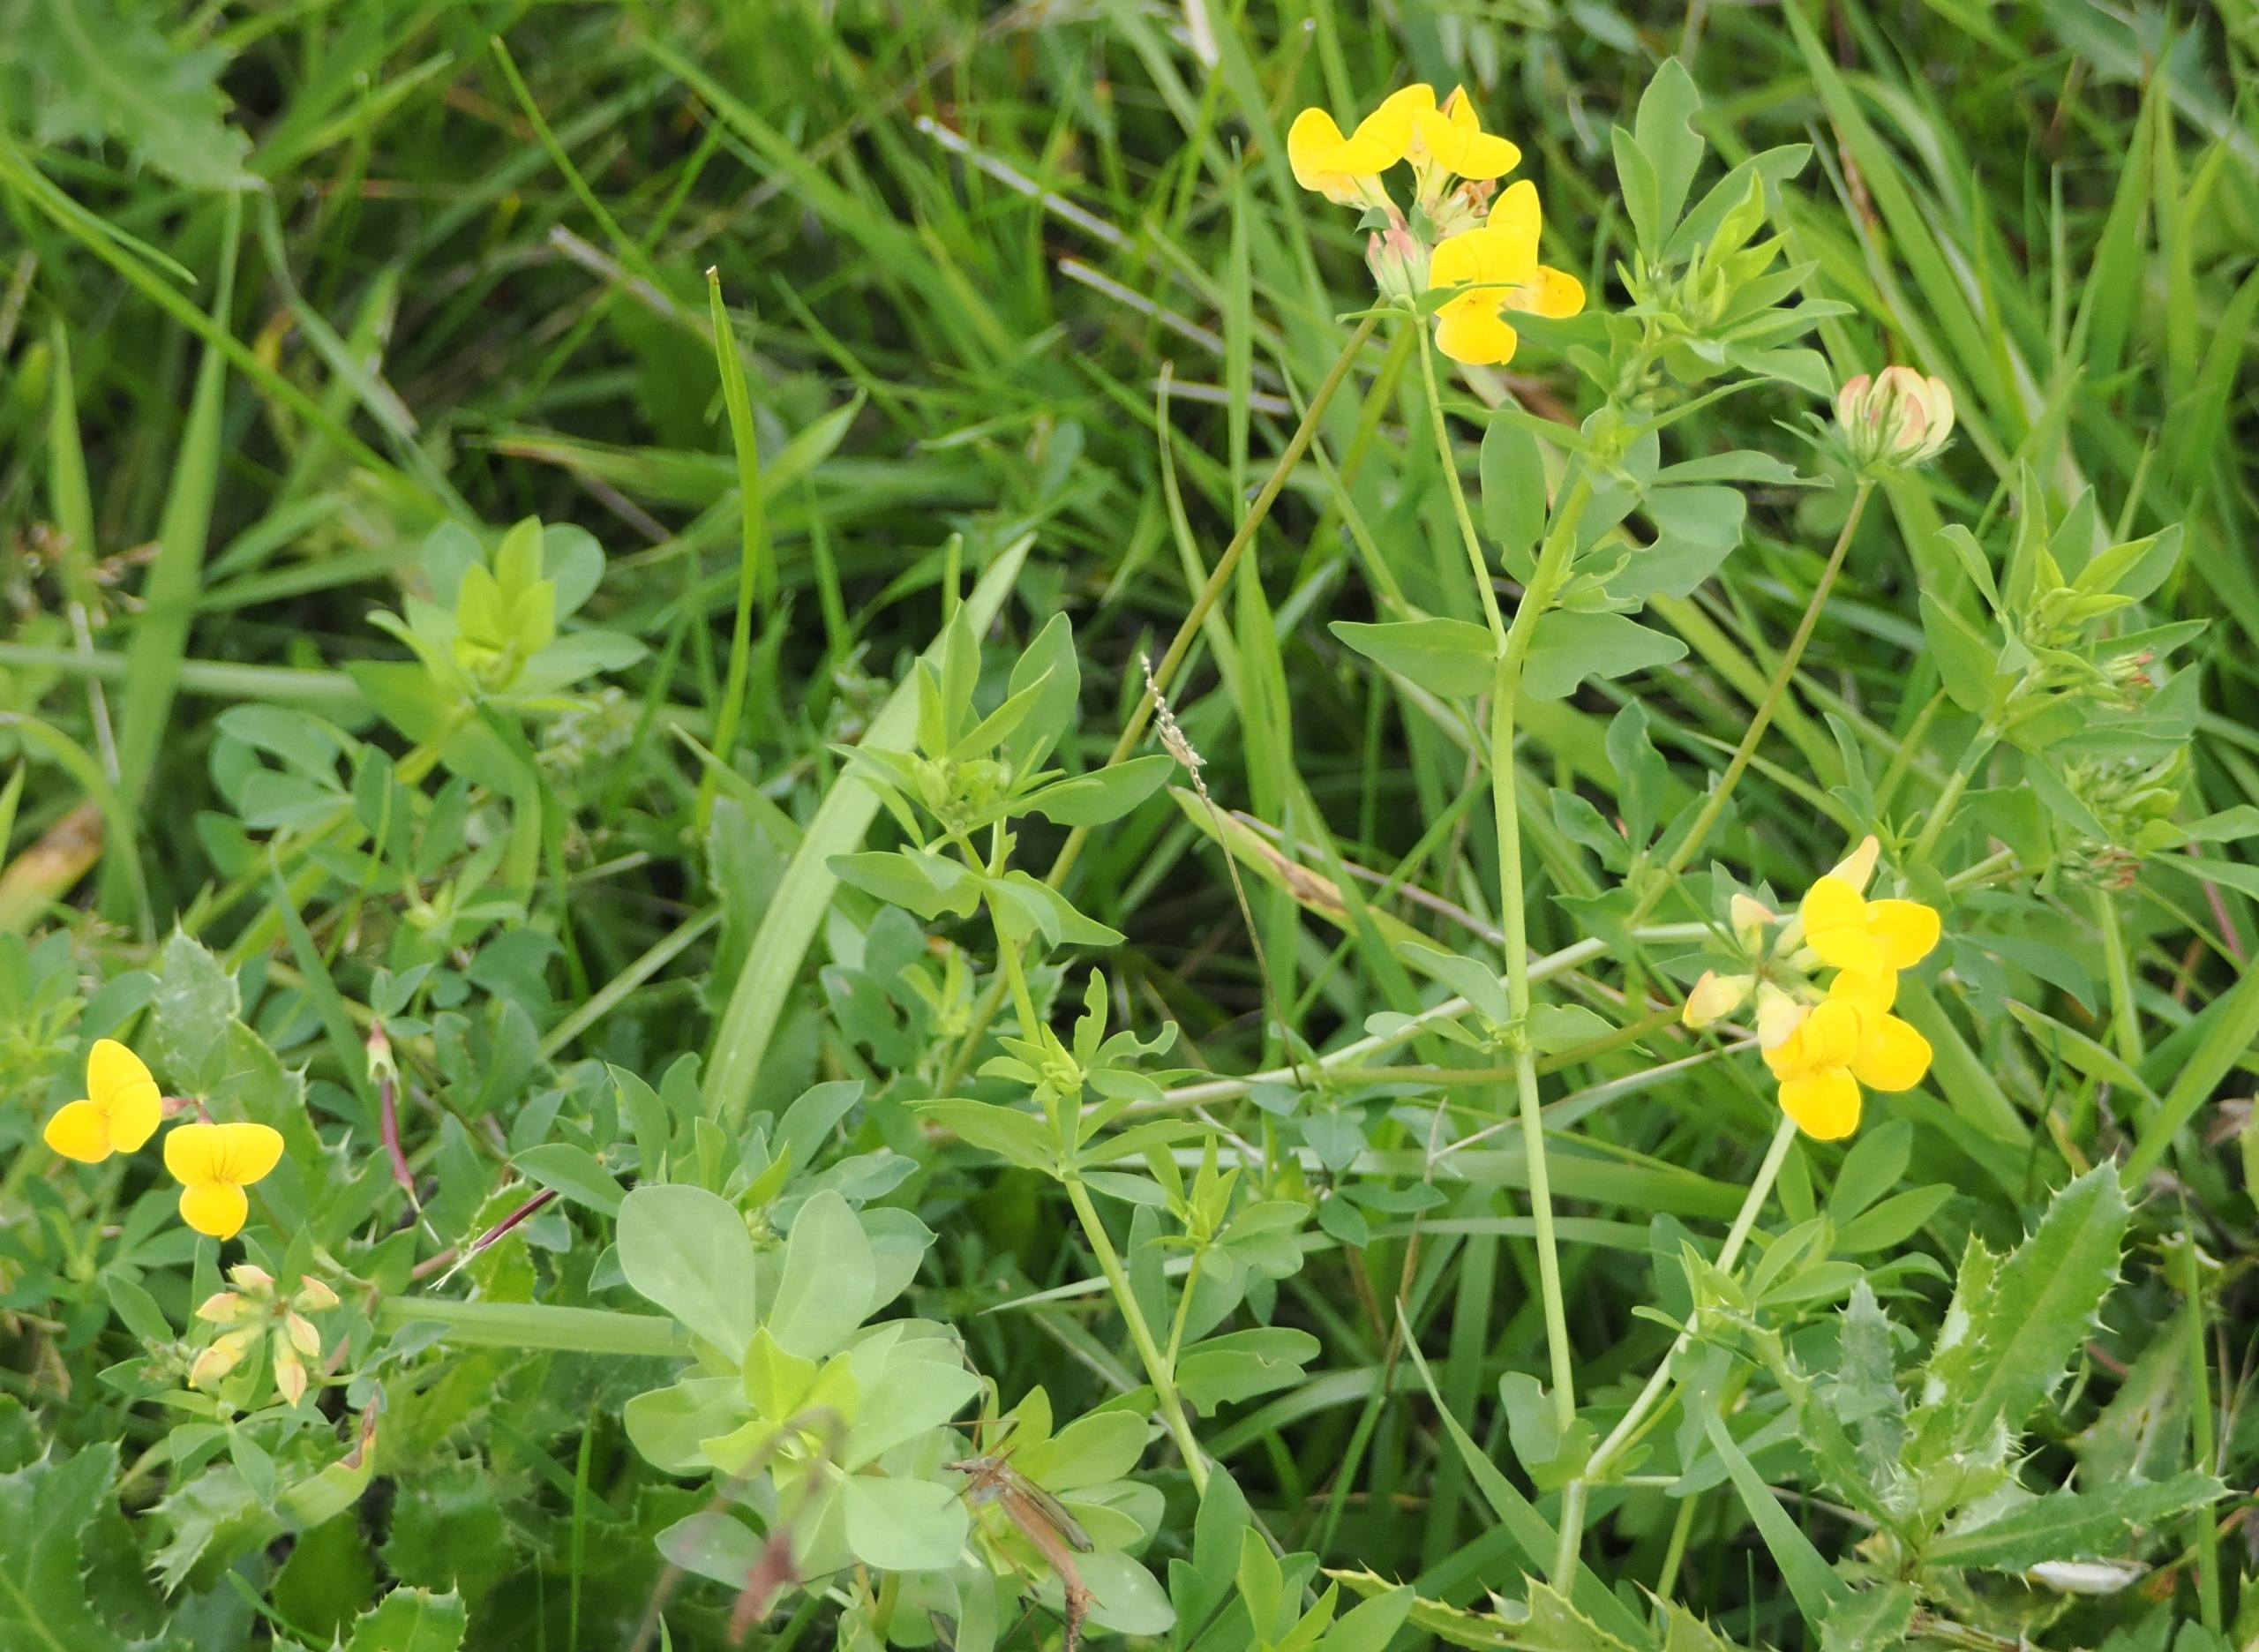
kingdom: Plantae
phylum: Tracheophyta
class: Magnoliopsida
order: Fabales
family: Fabaceae
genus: Lotus
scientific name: Lotus corniculatus
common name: Almindelig kællingetand
